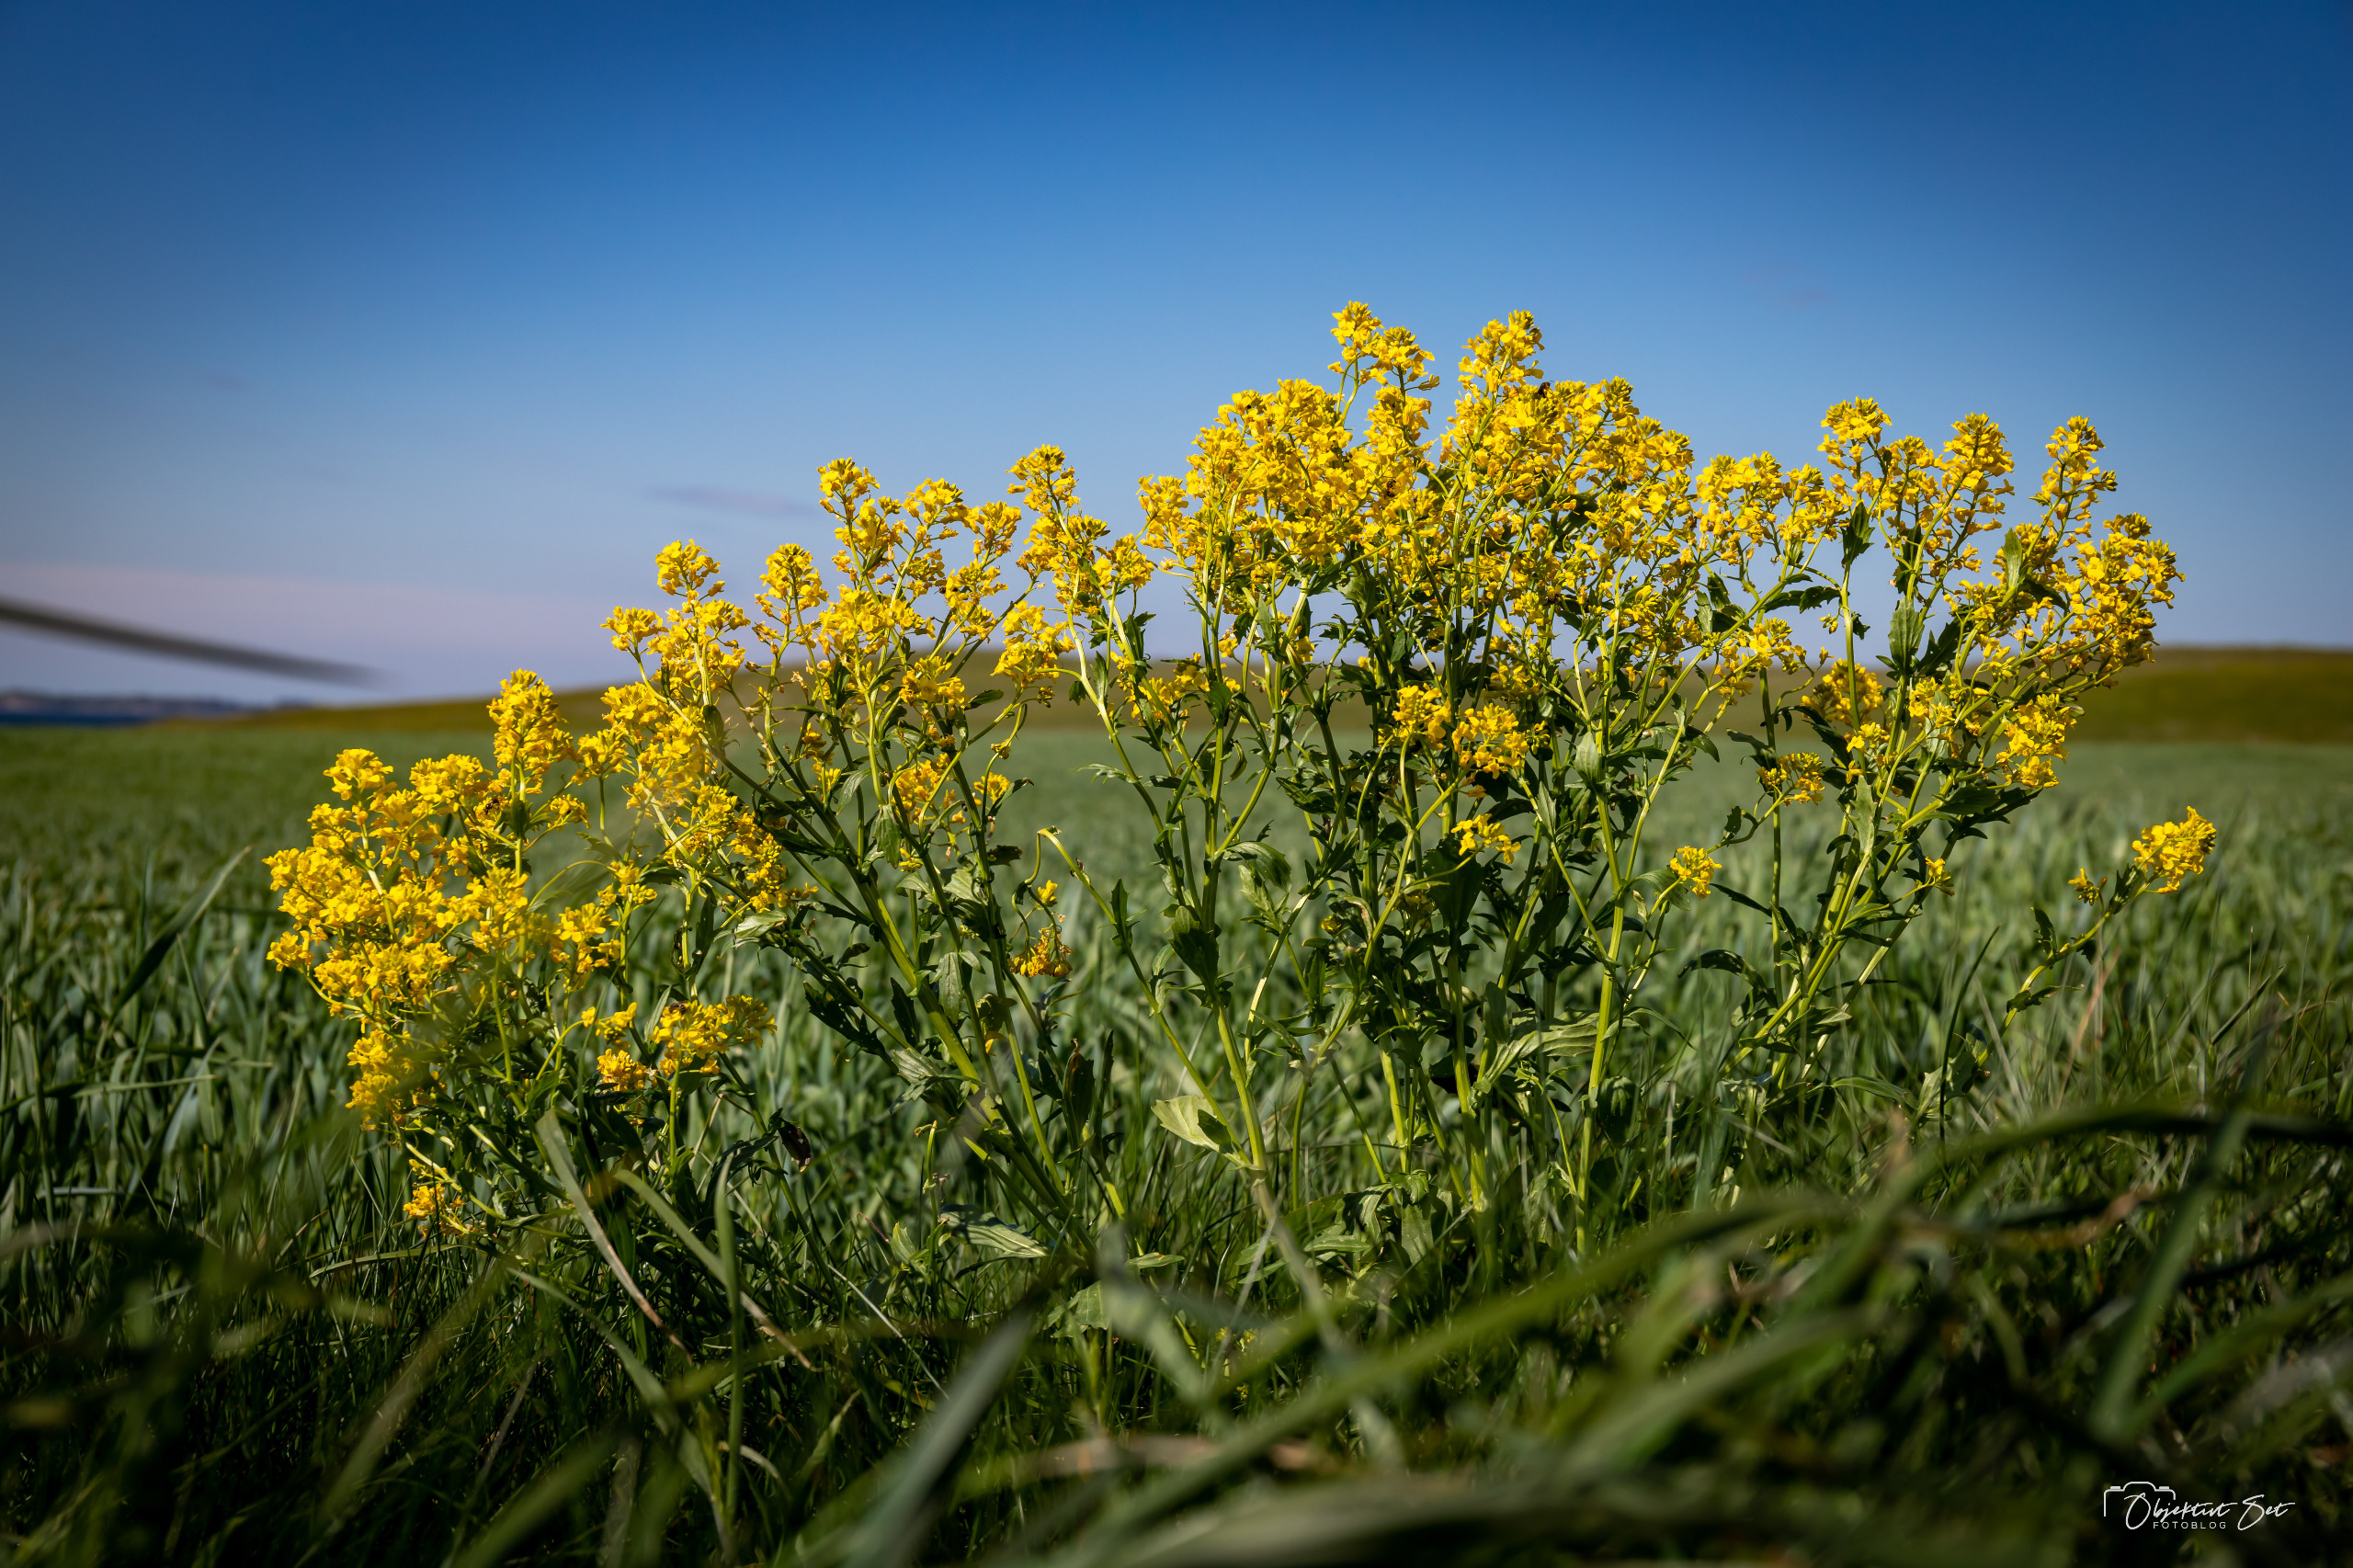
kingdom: Plantae
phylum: Tracheophyta
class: Magnoliopsida
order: Brassicales
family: Brassicaceae
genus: Barbarea
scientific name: Barbarea vulgaris
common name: Almindelig vinterkarse
